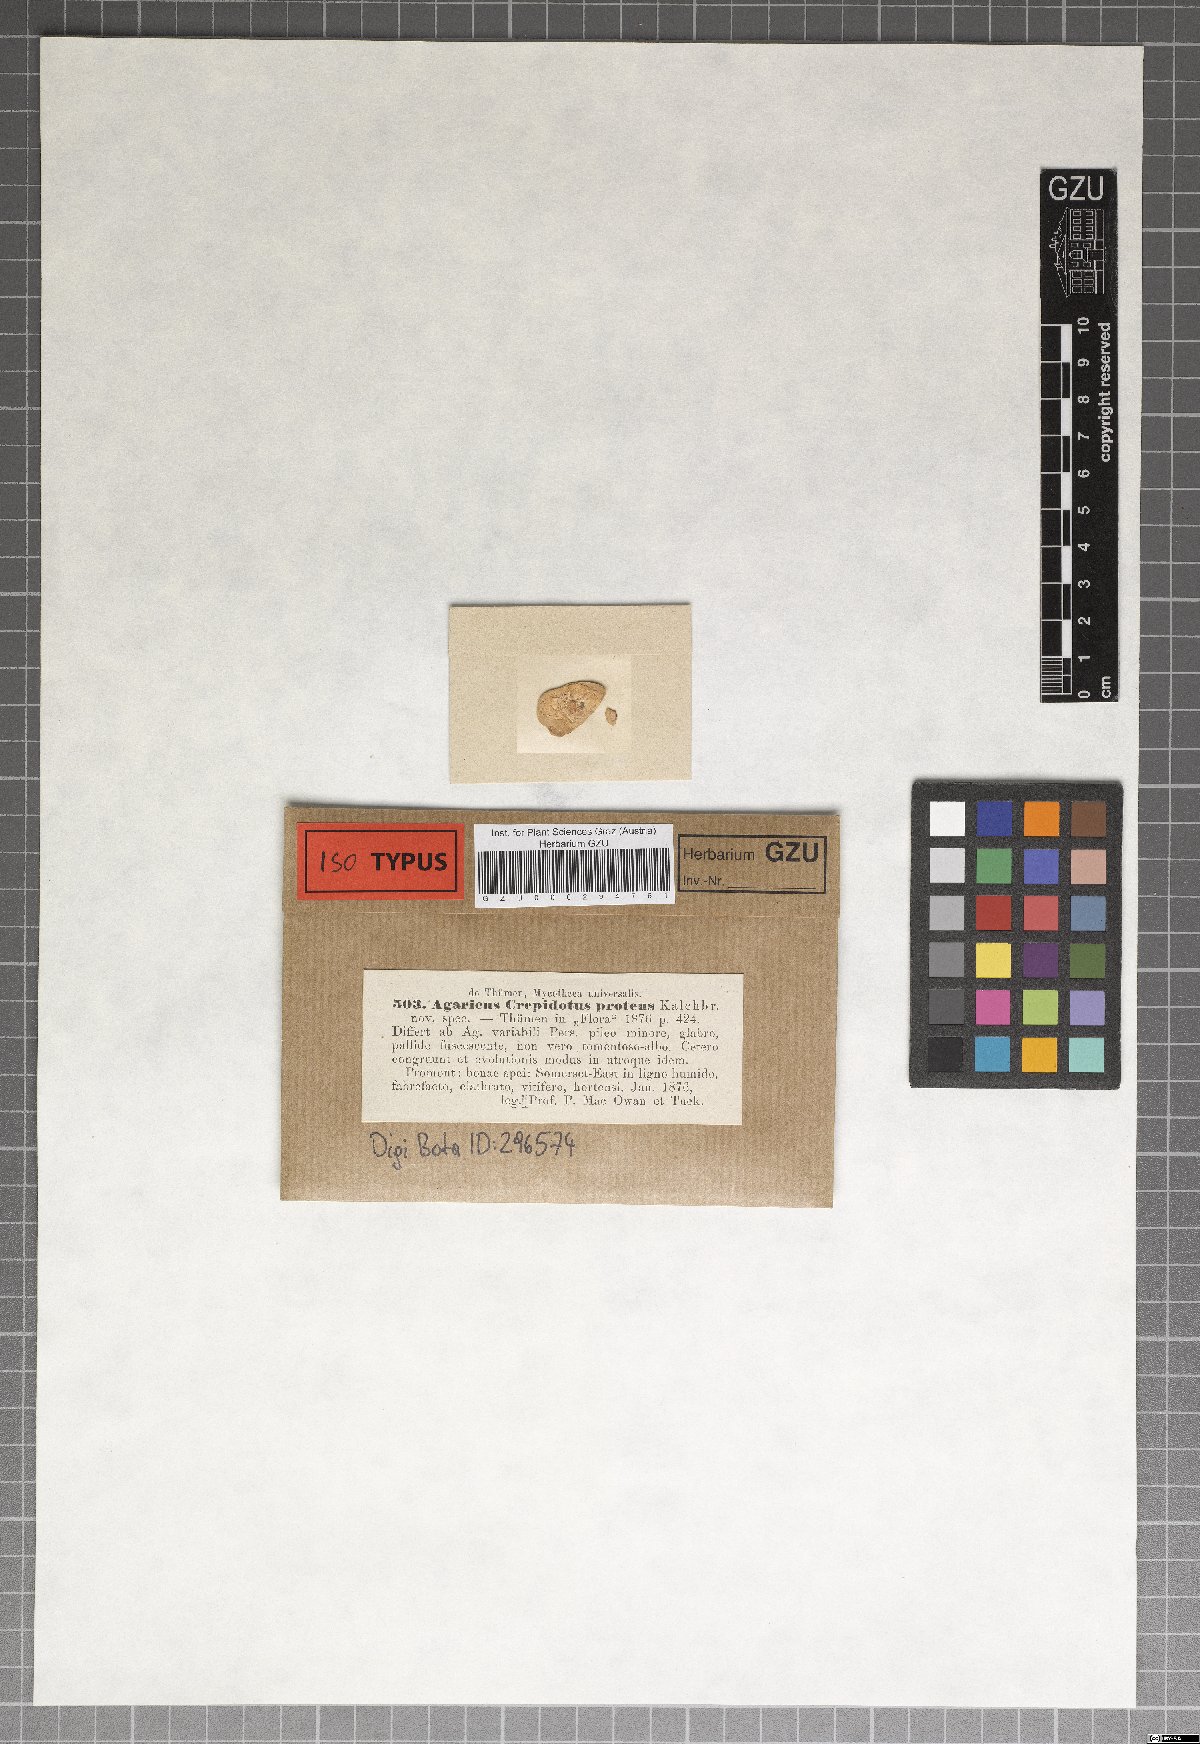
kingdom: Fungi
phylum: Basidiomycota
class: Agaricomycetes
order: Agaricales
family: Strophariaceae
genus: Melanotus
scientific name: Melanotus proteus
